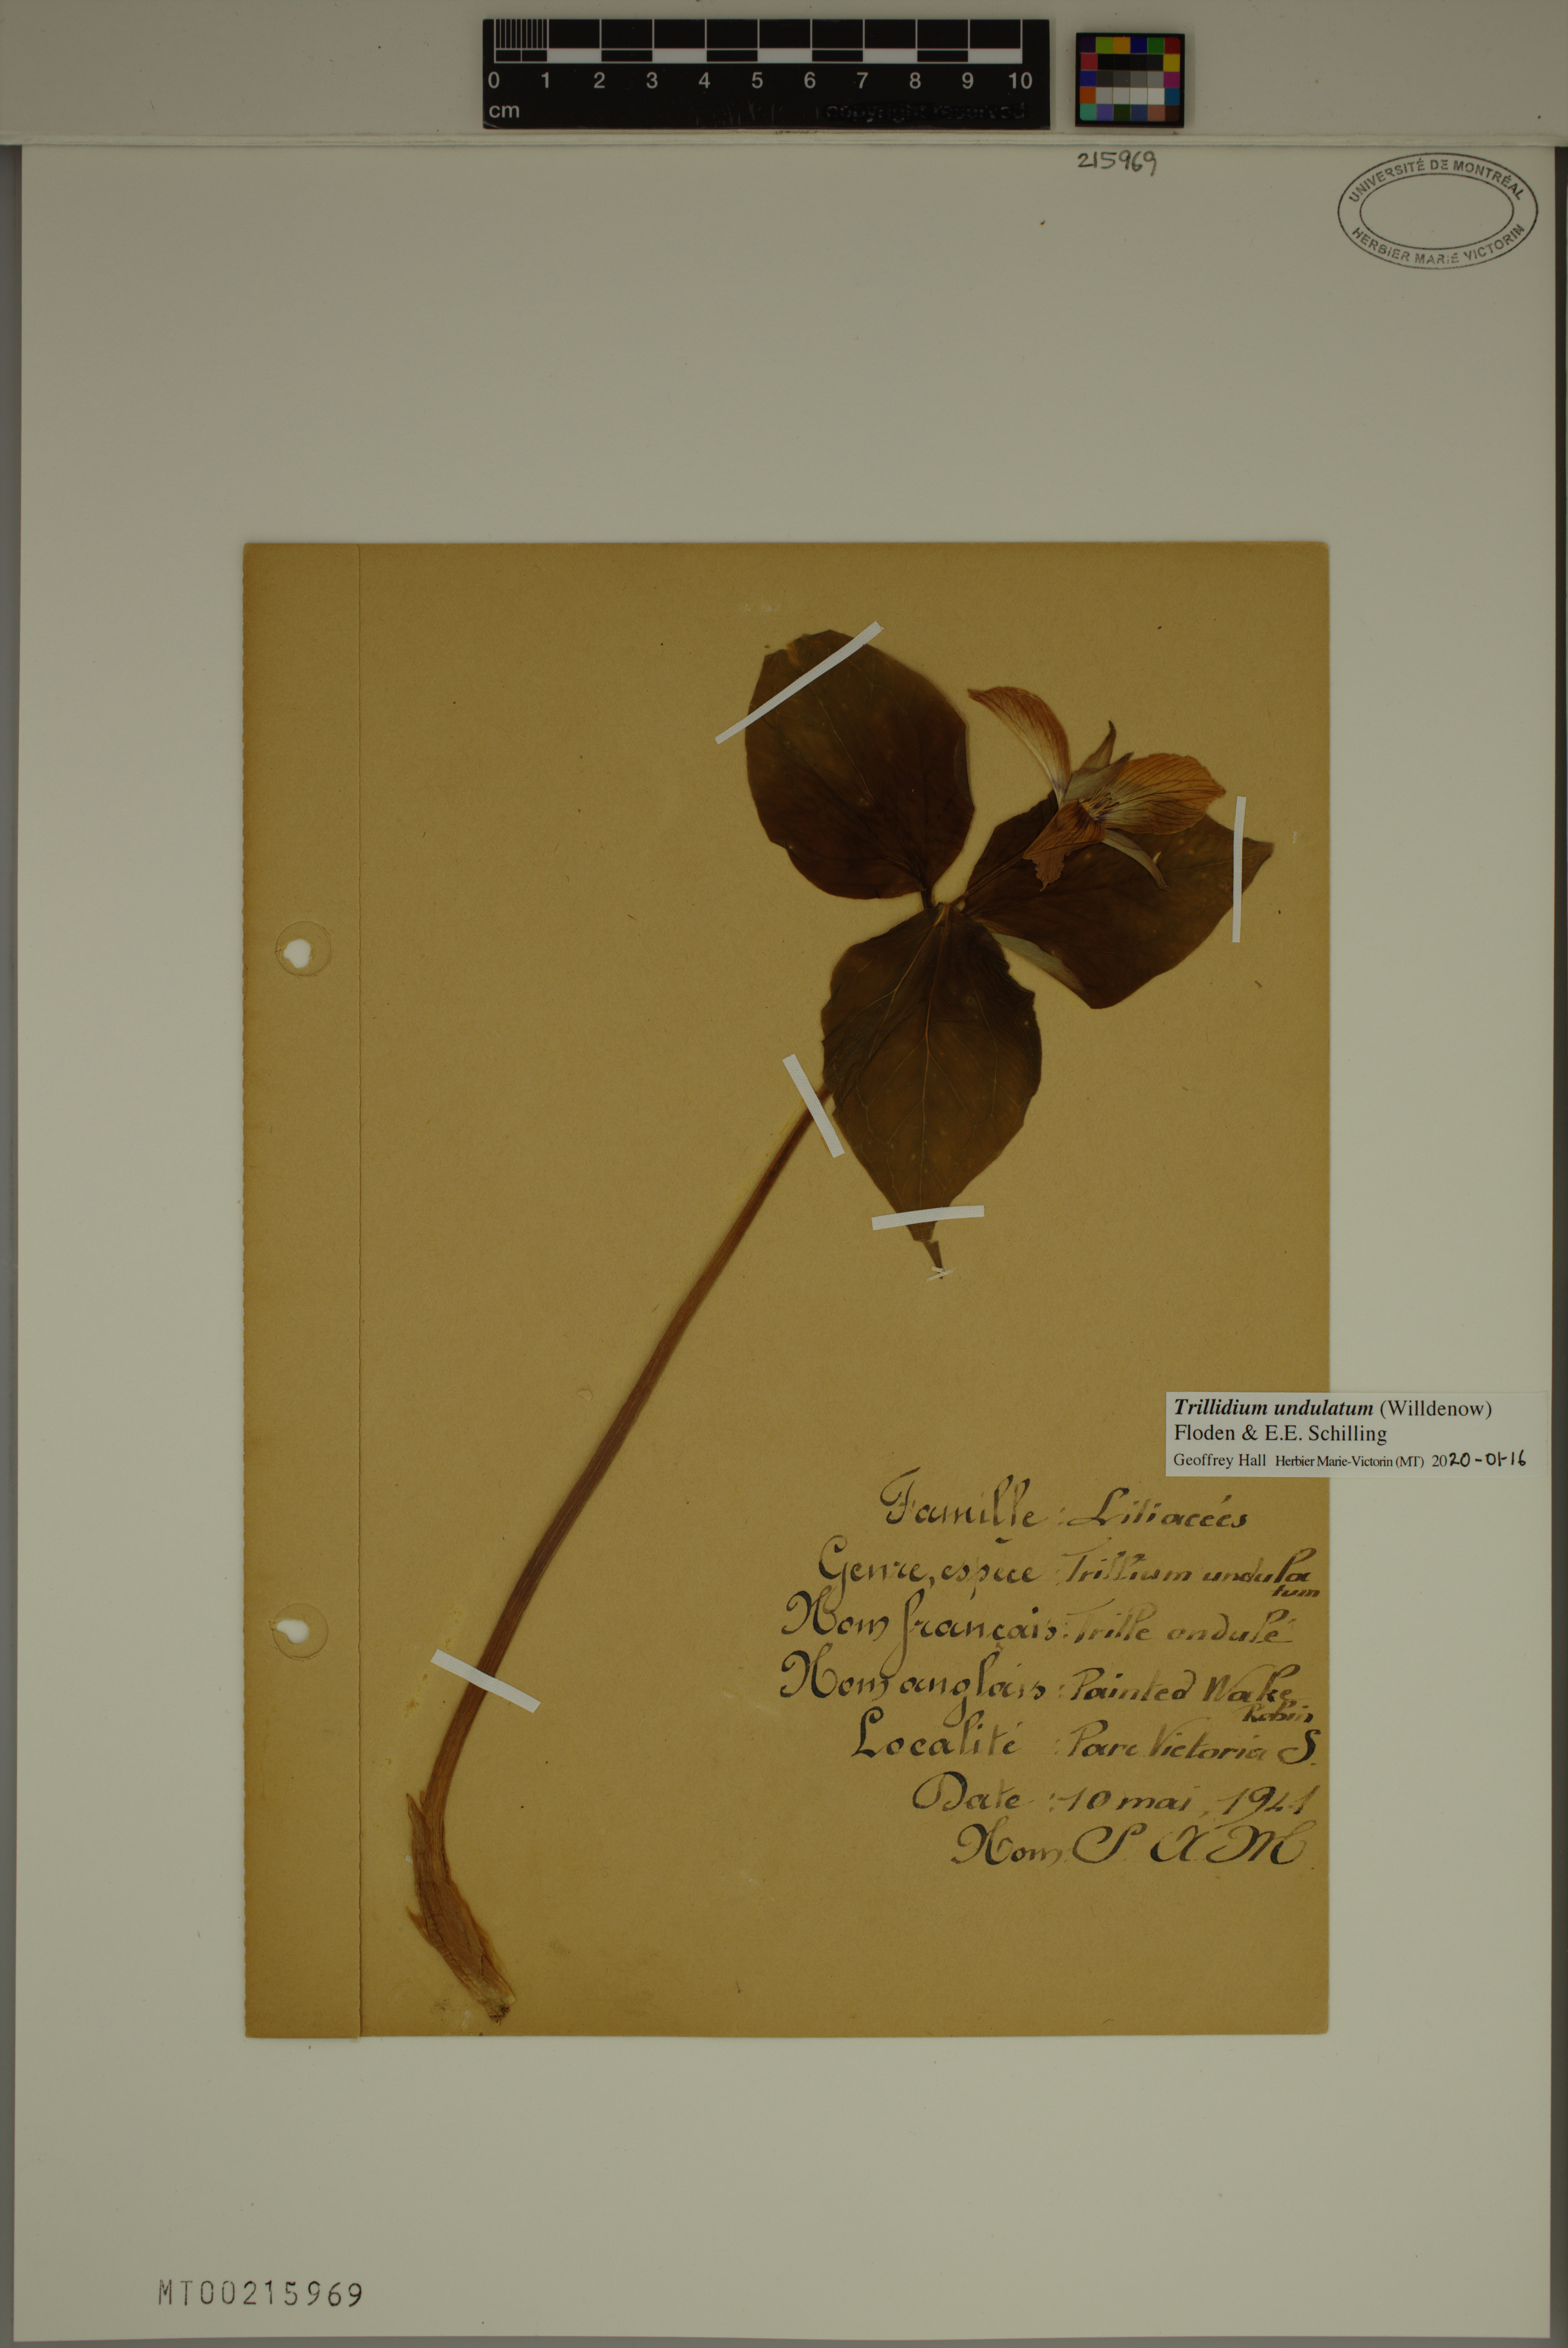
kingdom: Plantae
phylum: Tracheophyta
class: Liliopsida
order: Liliales
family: Melanthiaceae
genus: Trillium
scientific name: Trillium undulatum
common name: Paint trillium
